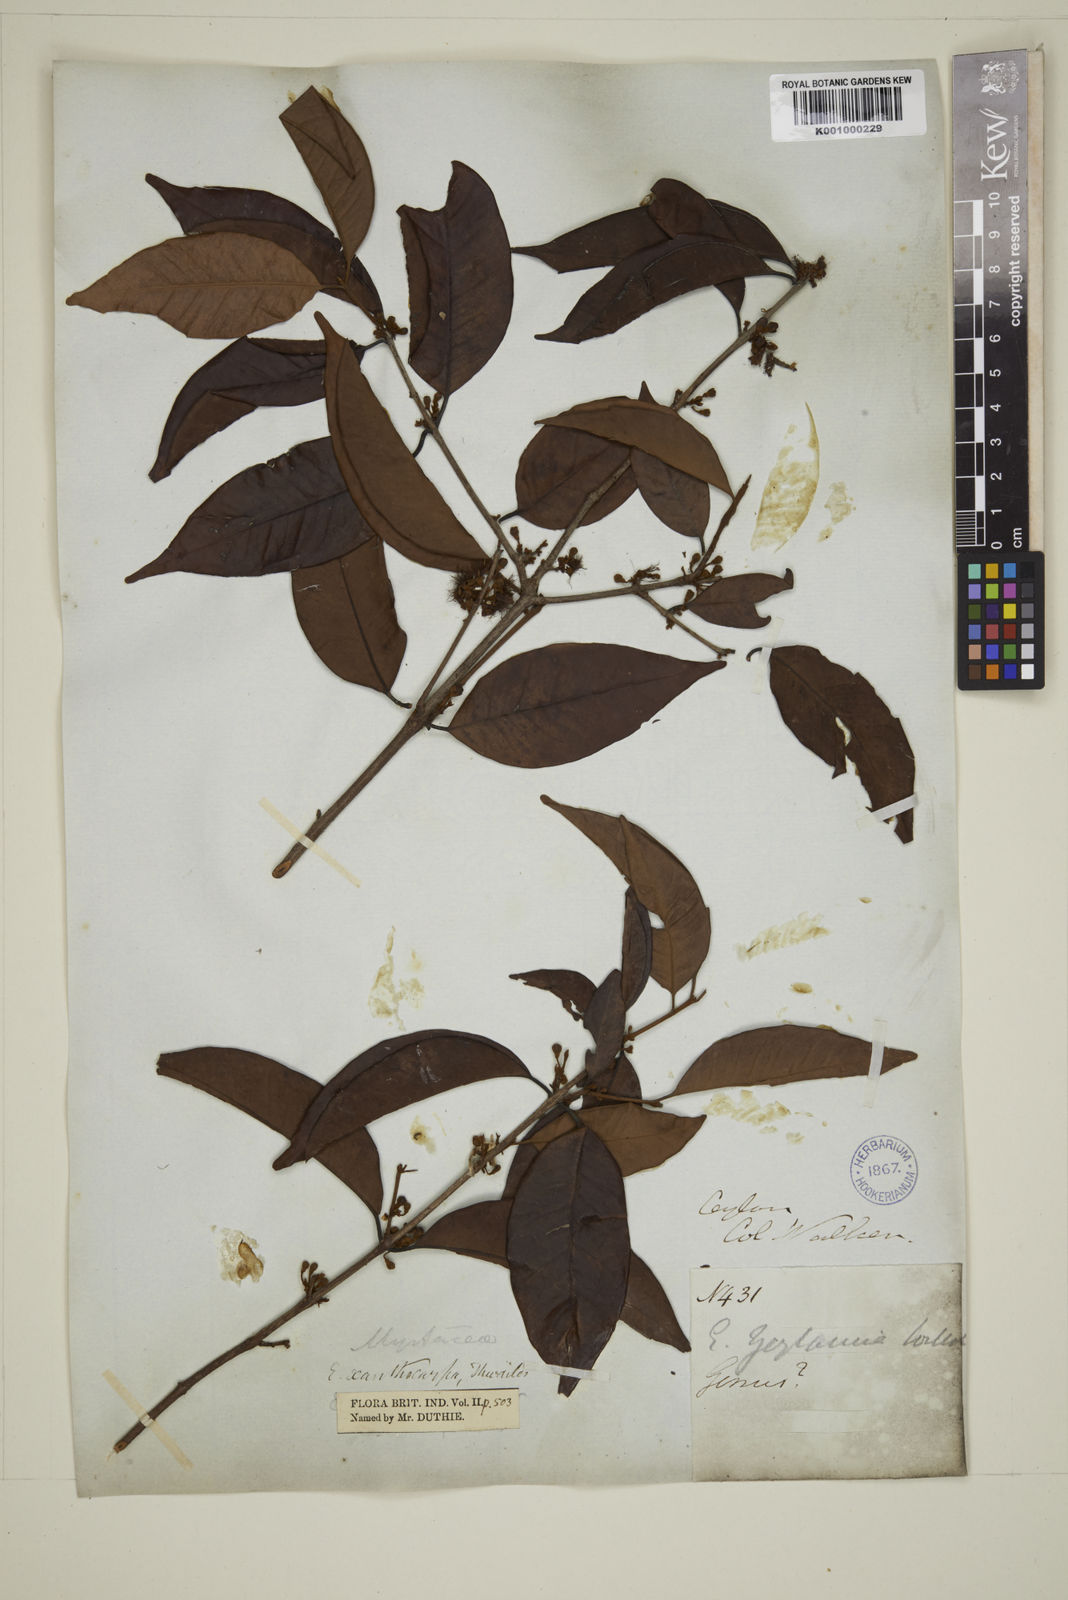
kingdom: Plantae
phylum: Tracheophyta
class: Magnoliopsida
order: Myrtales
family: Myrtaceae
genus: Campomanesia
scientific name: Campomanesia xanthocarpa
